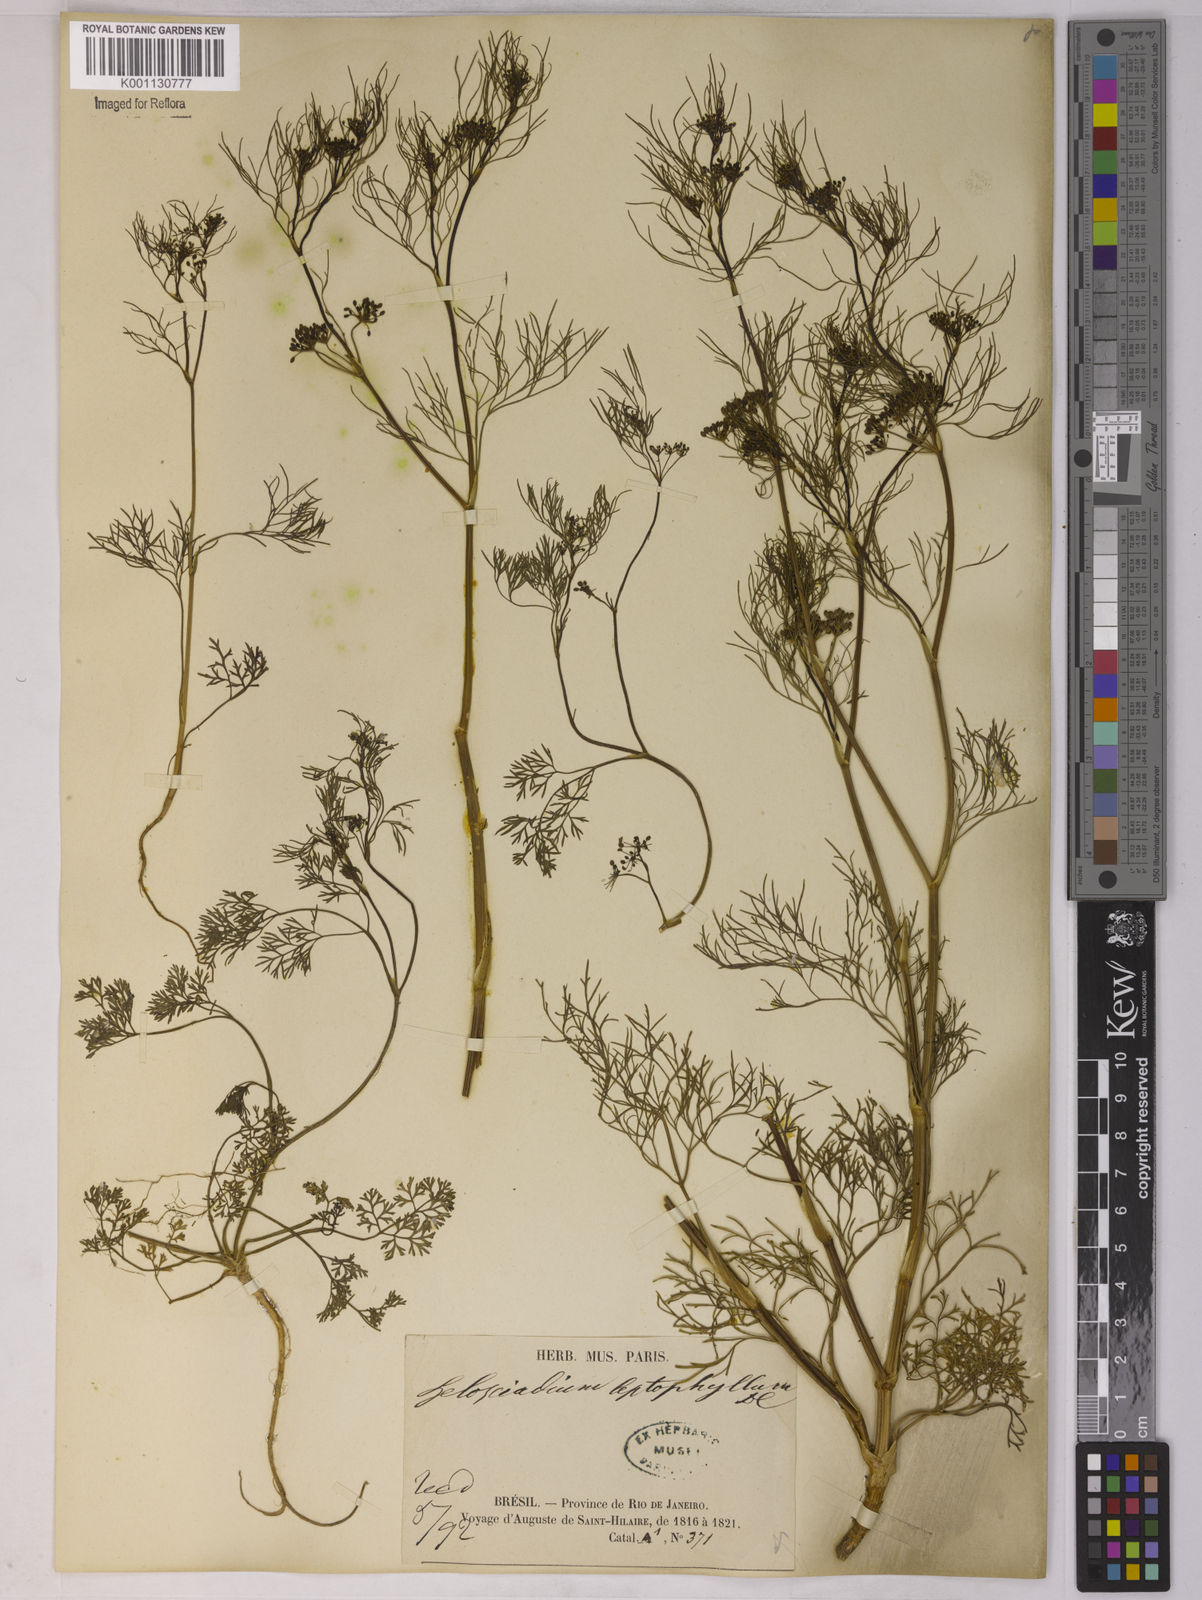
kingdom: Plantae
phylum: Tracheophyta
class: Magnoliopsida
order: Apiales
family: Apiaceae
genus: Apium
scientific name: Apium
